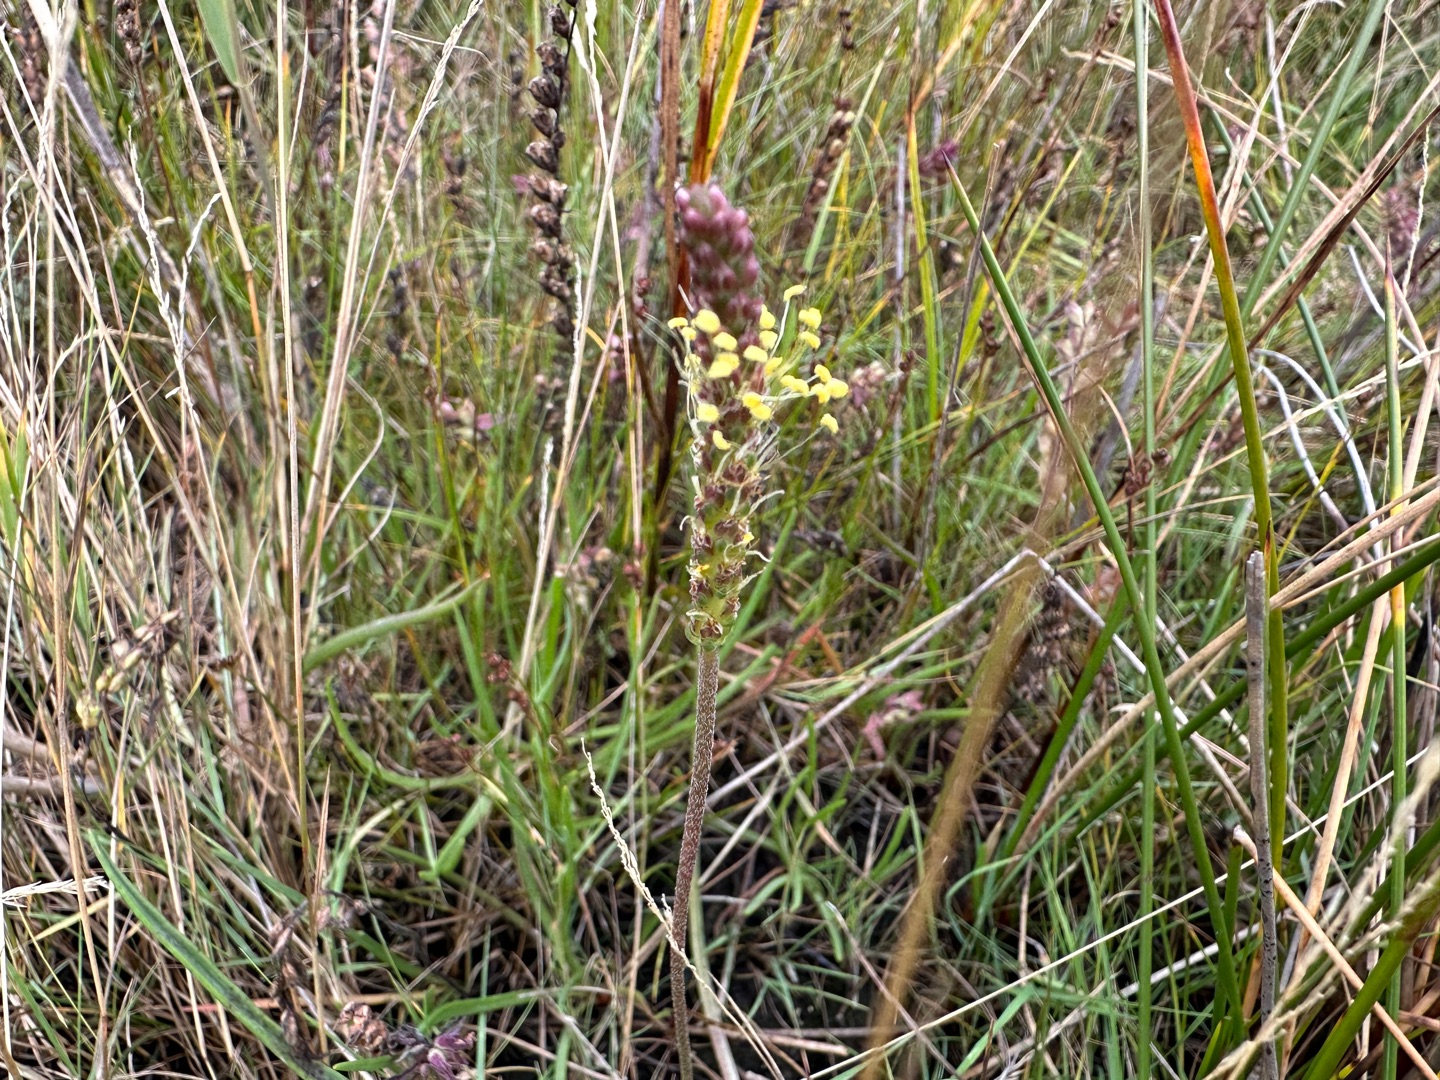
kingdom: Plantae
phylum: Tracheophyta
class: Magnoliopsida
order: Lamiales
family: Plantaginaceae
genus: Plantago
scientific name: Plantago maritima
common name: Strand-vejbred
